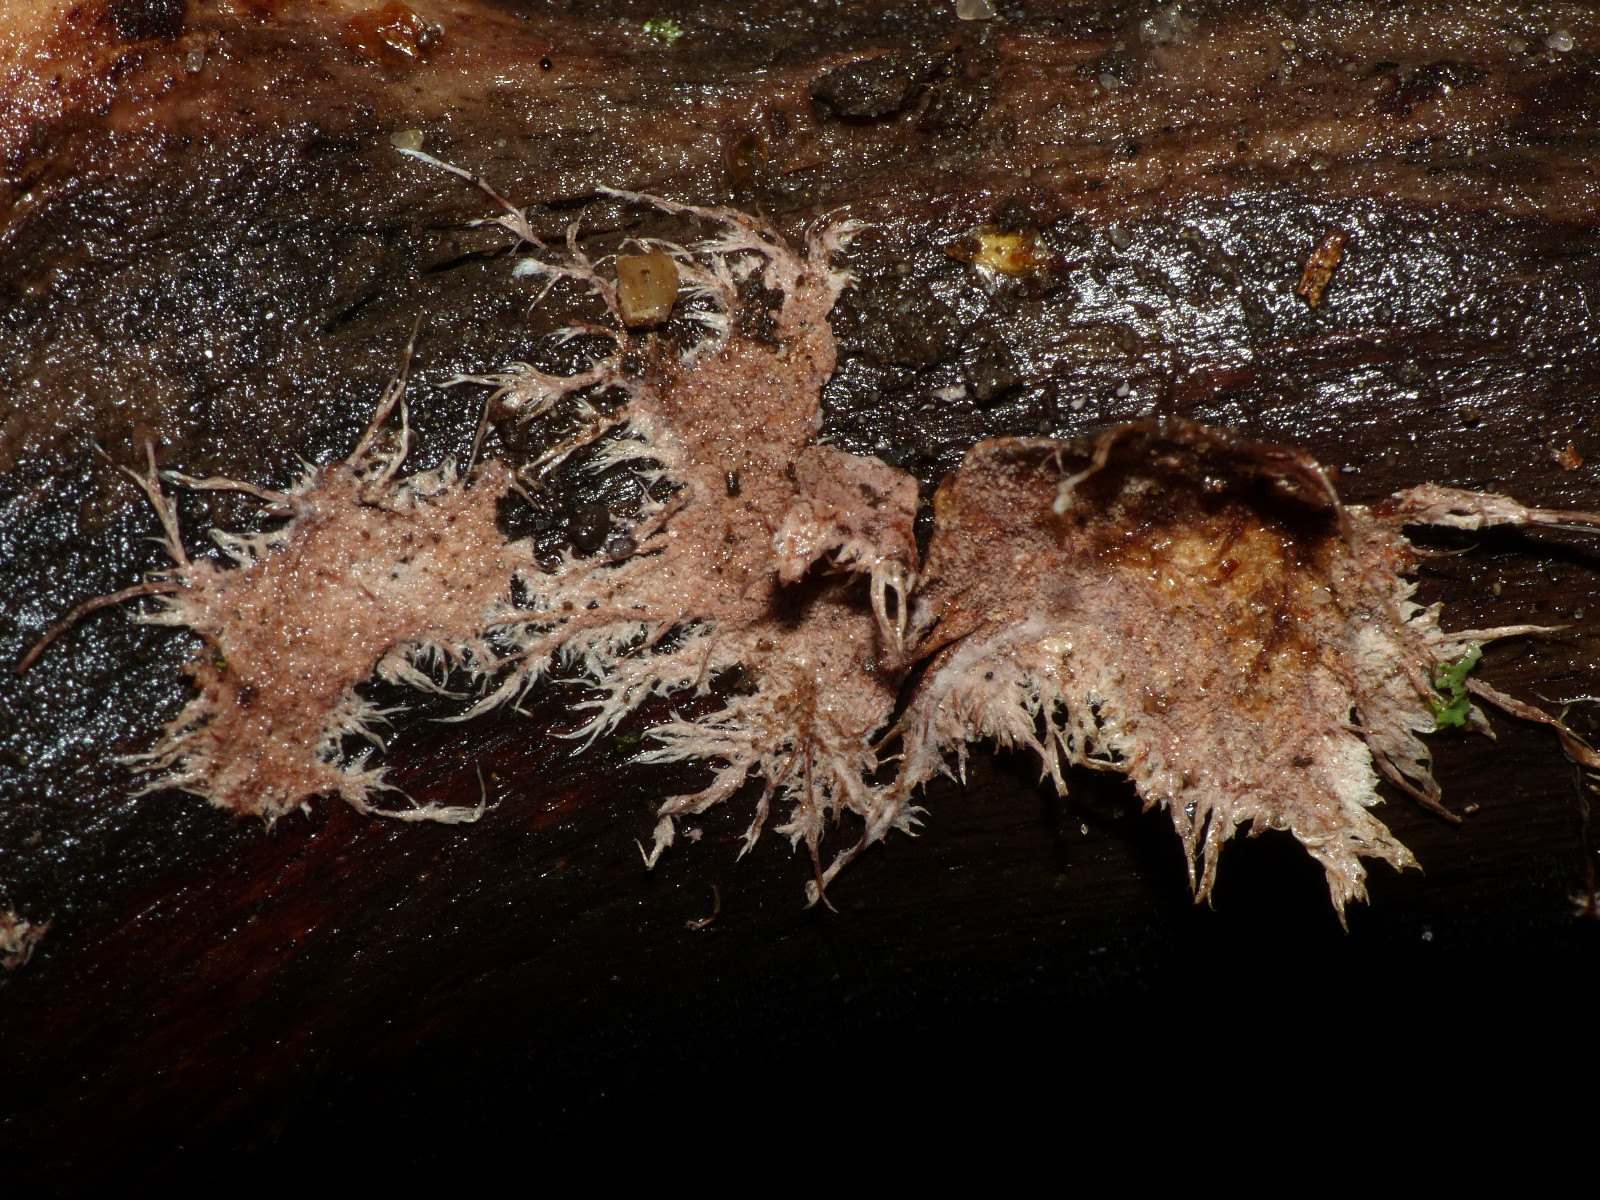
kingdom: Fungi
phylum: Basidiomycota
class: Agaricomycetes
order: Polyporales
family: Steccherinaceae
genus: Steccherinum
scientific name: Steccherinum fimbriatum
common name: trådet skønpig
